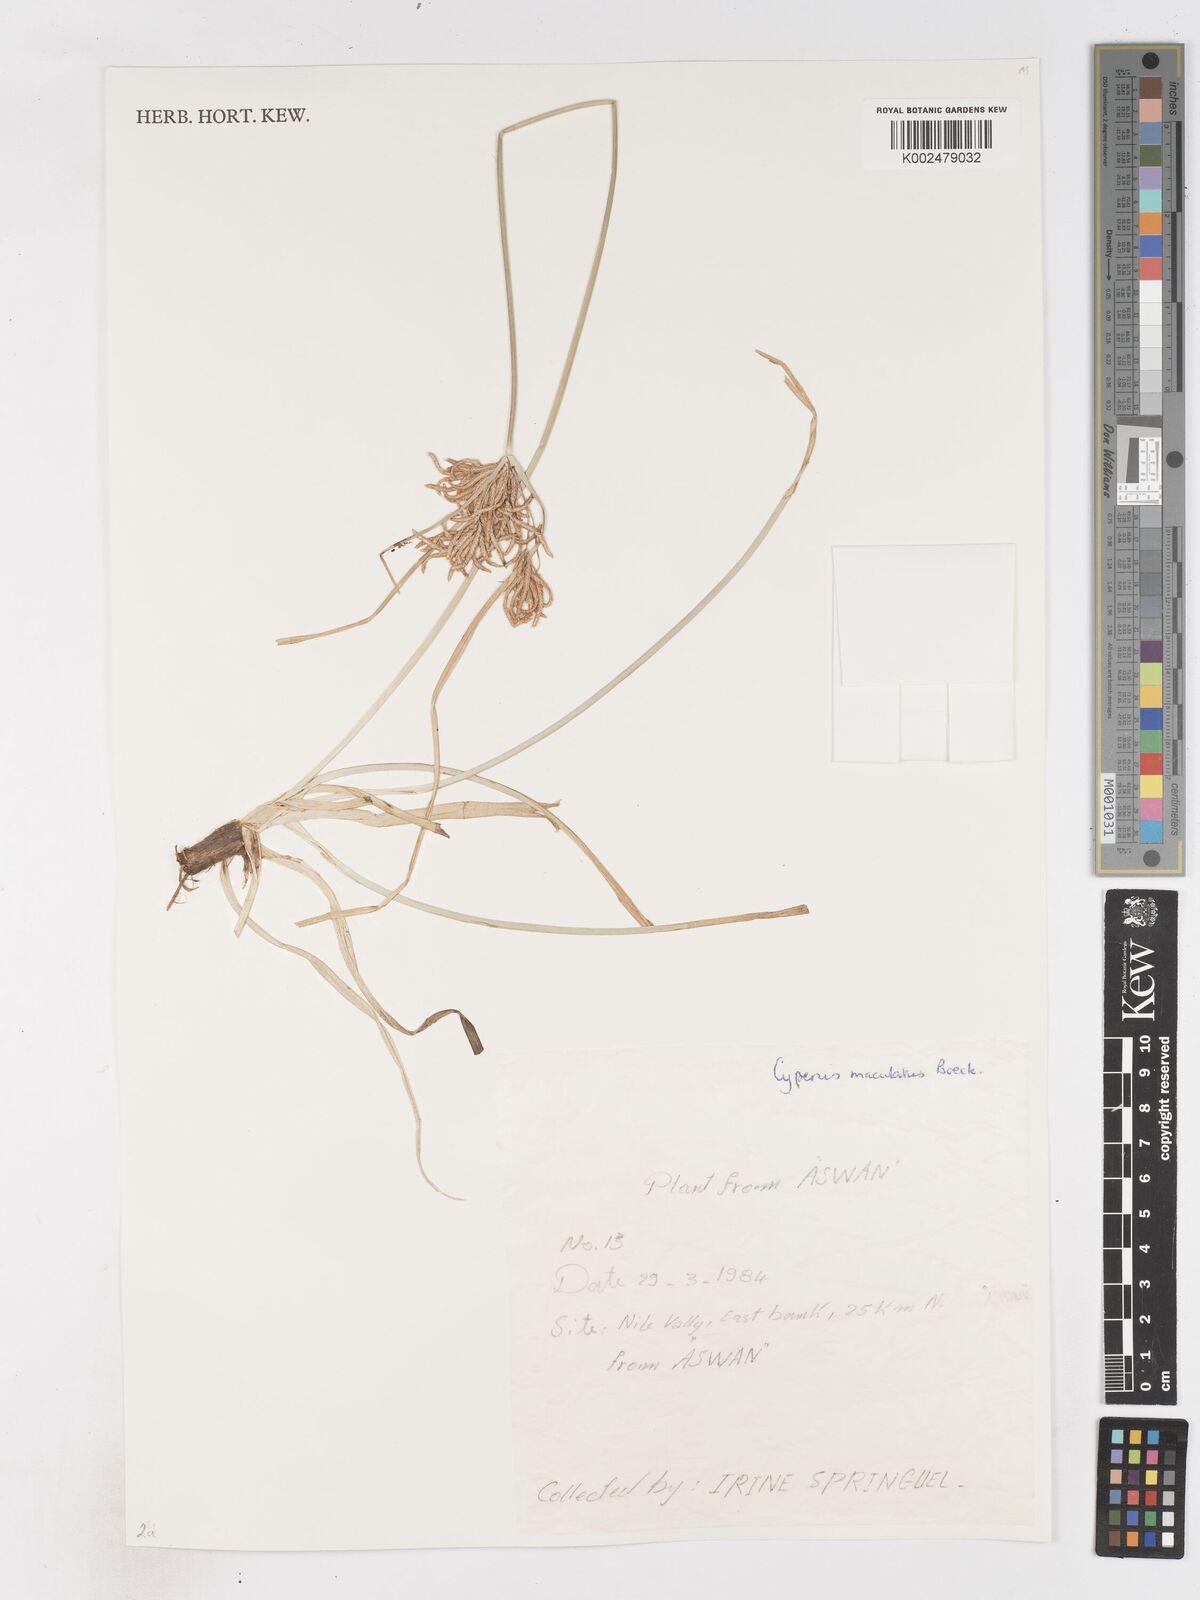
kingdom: Plantae
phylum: Tracheophyta
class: Liliopsida
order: Poales
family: Cyperaceae
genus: Cyperus
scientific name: Cyperus maculatus
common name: Maculated sedge
